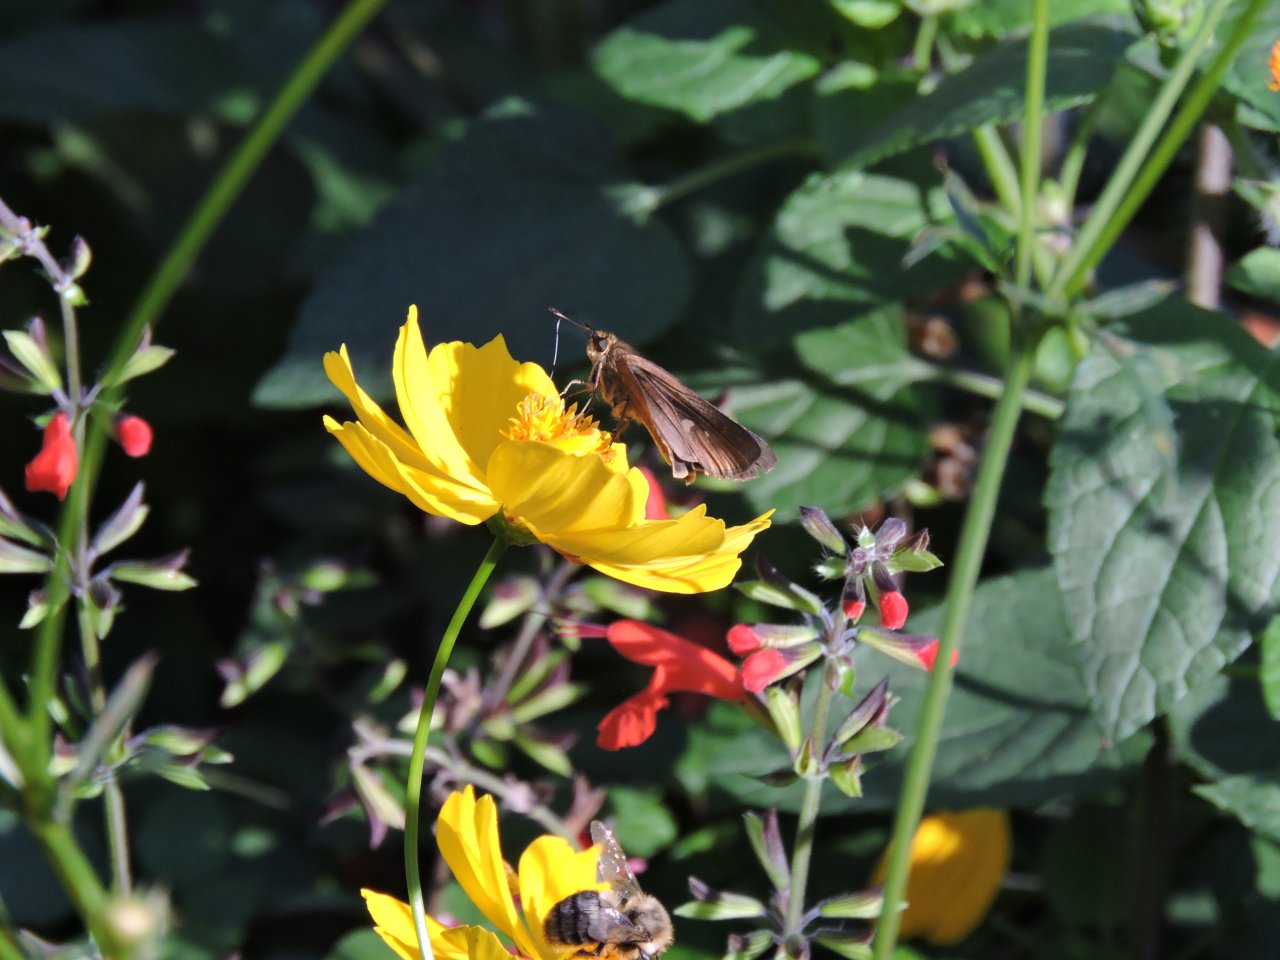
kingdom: Animalia
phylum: Arthropoda
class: Insecta
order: Lepidoptera
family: Hesperiidae
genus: Panoquina
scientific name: Panoquina ocola
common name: Ocola Skipper
